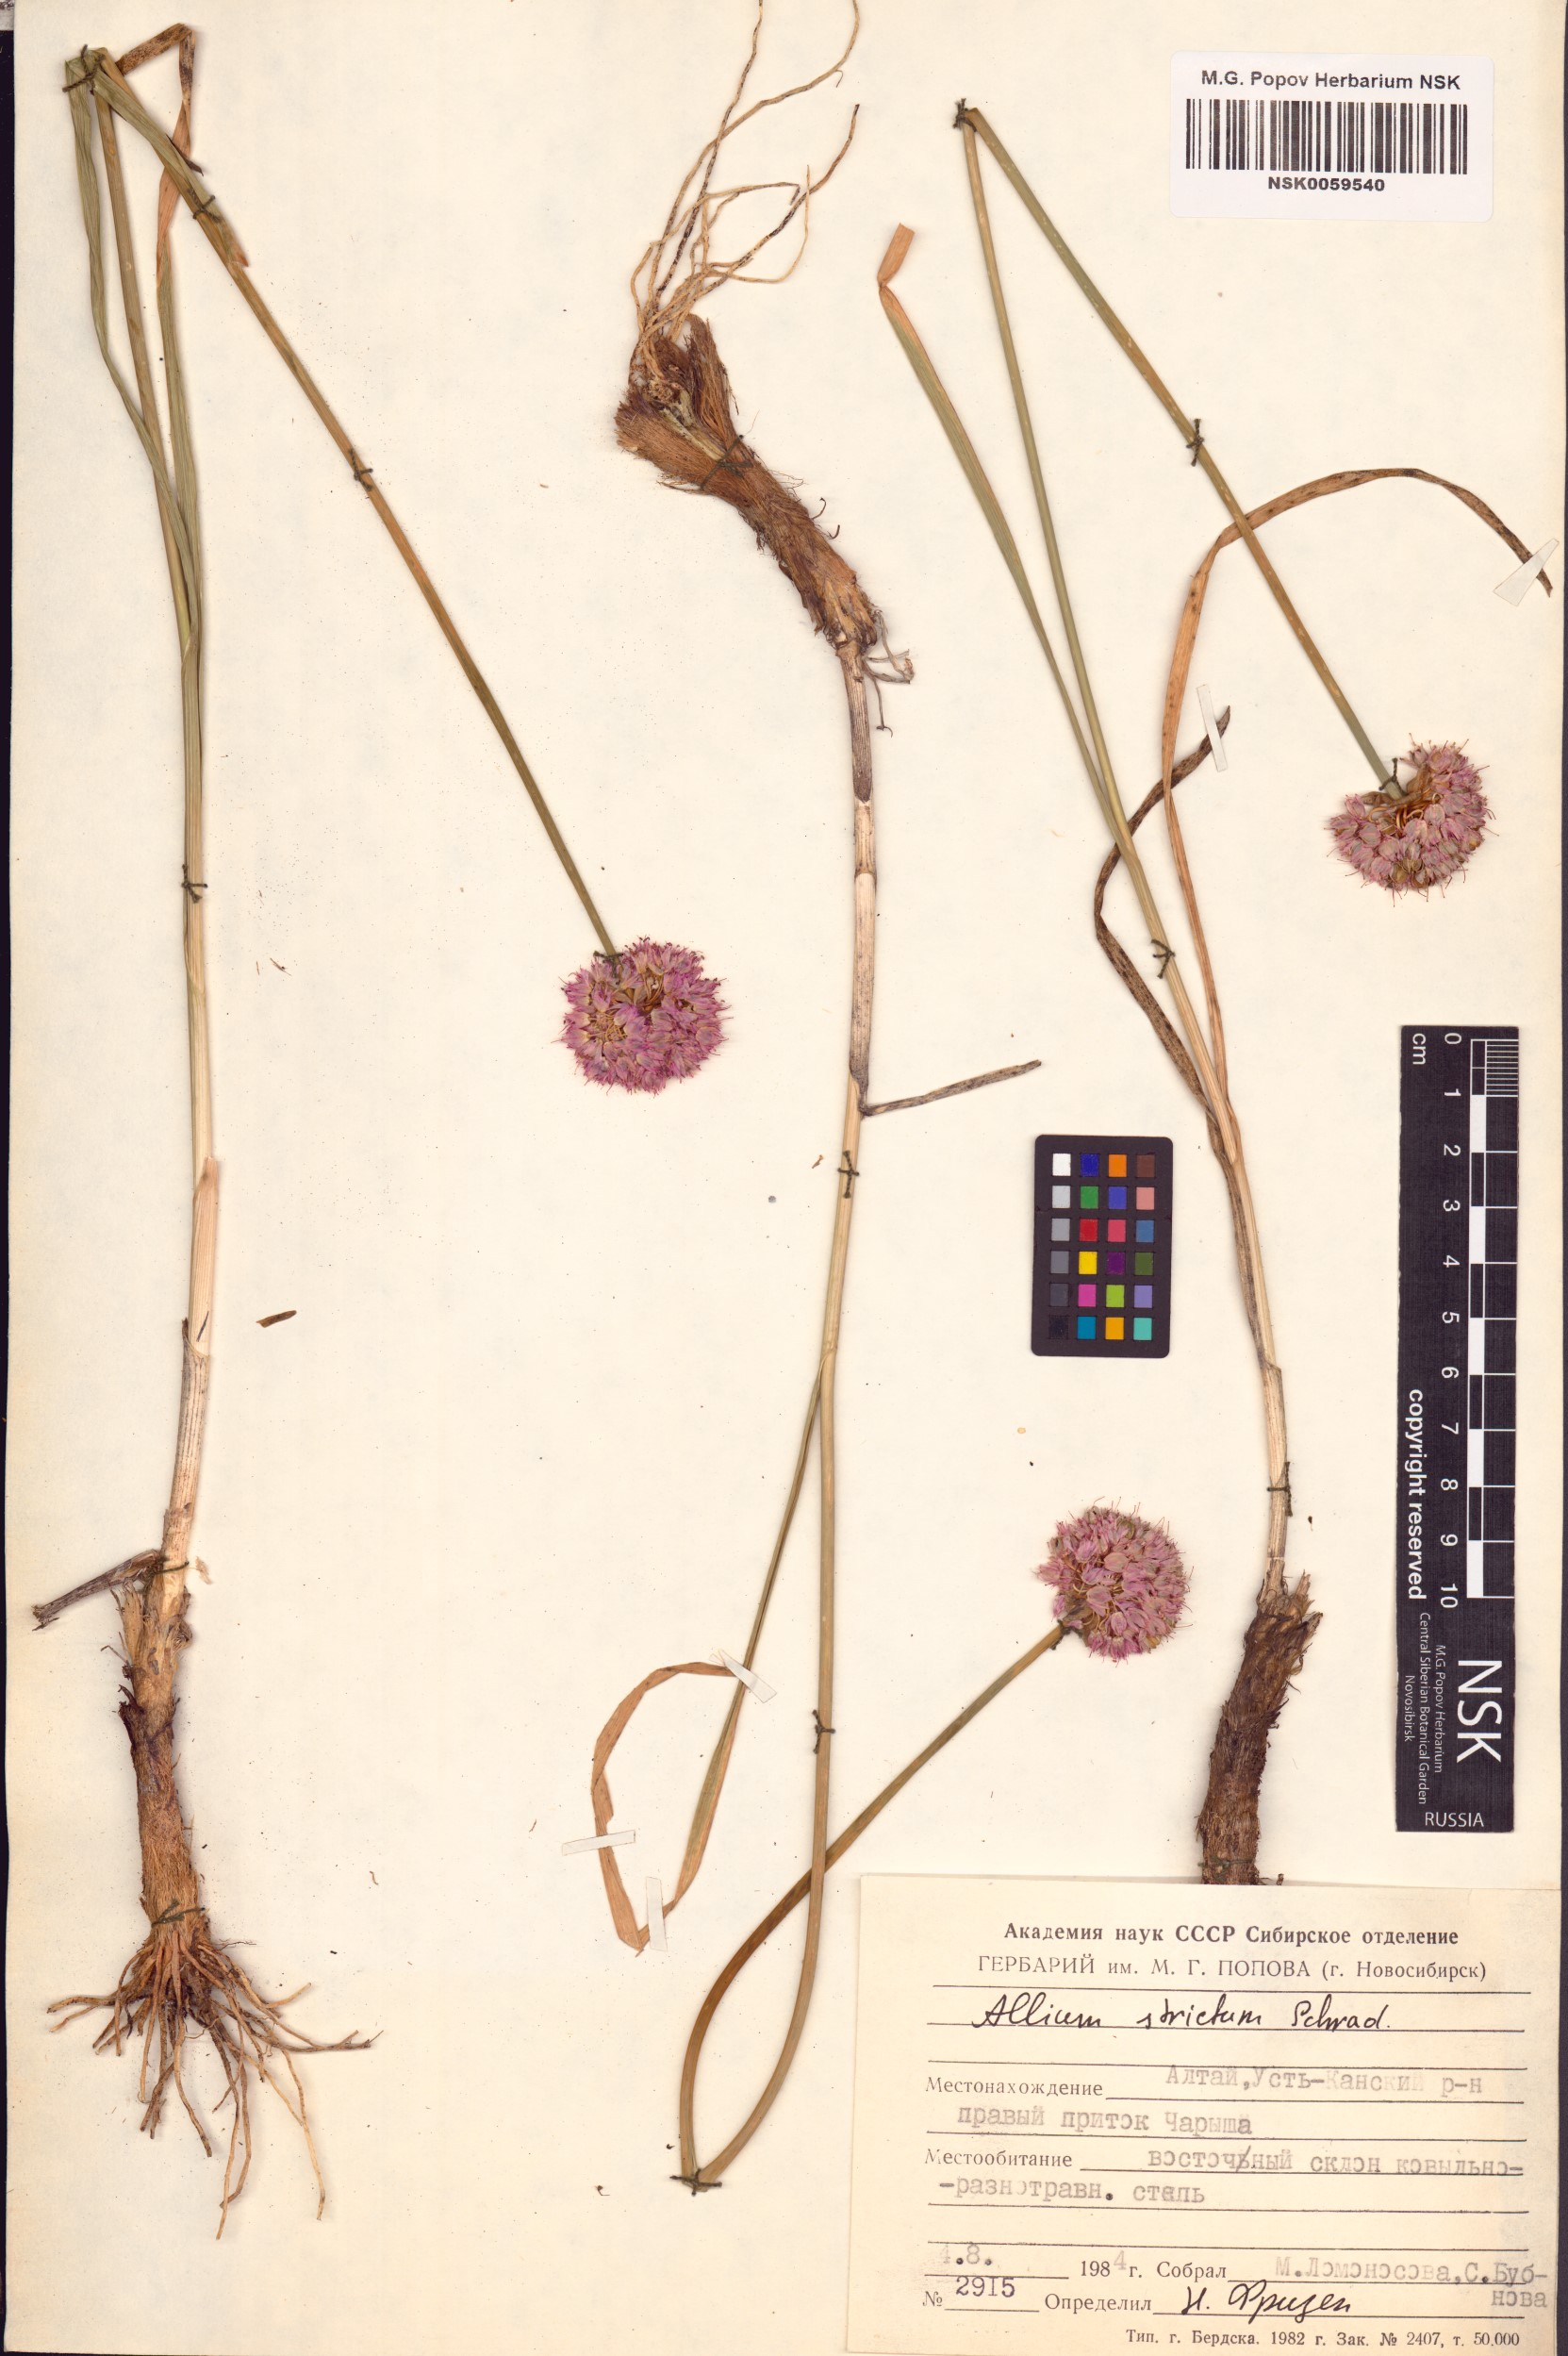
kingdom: Plantae
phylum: Tracheophyta
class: Liliopsida
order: Asparagales
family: Amaryllidaceae
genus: Allium
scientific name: Allium strictum
